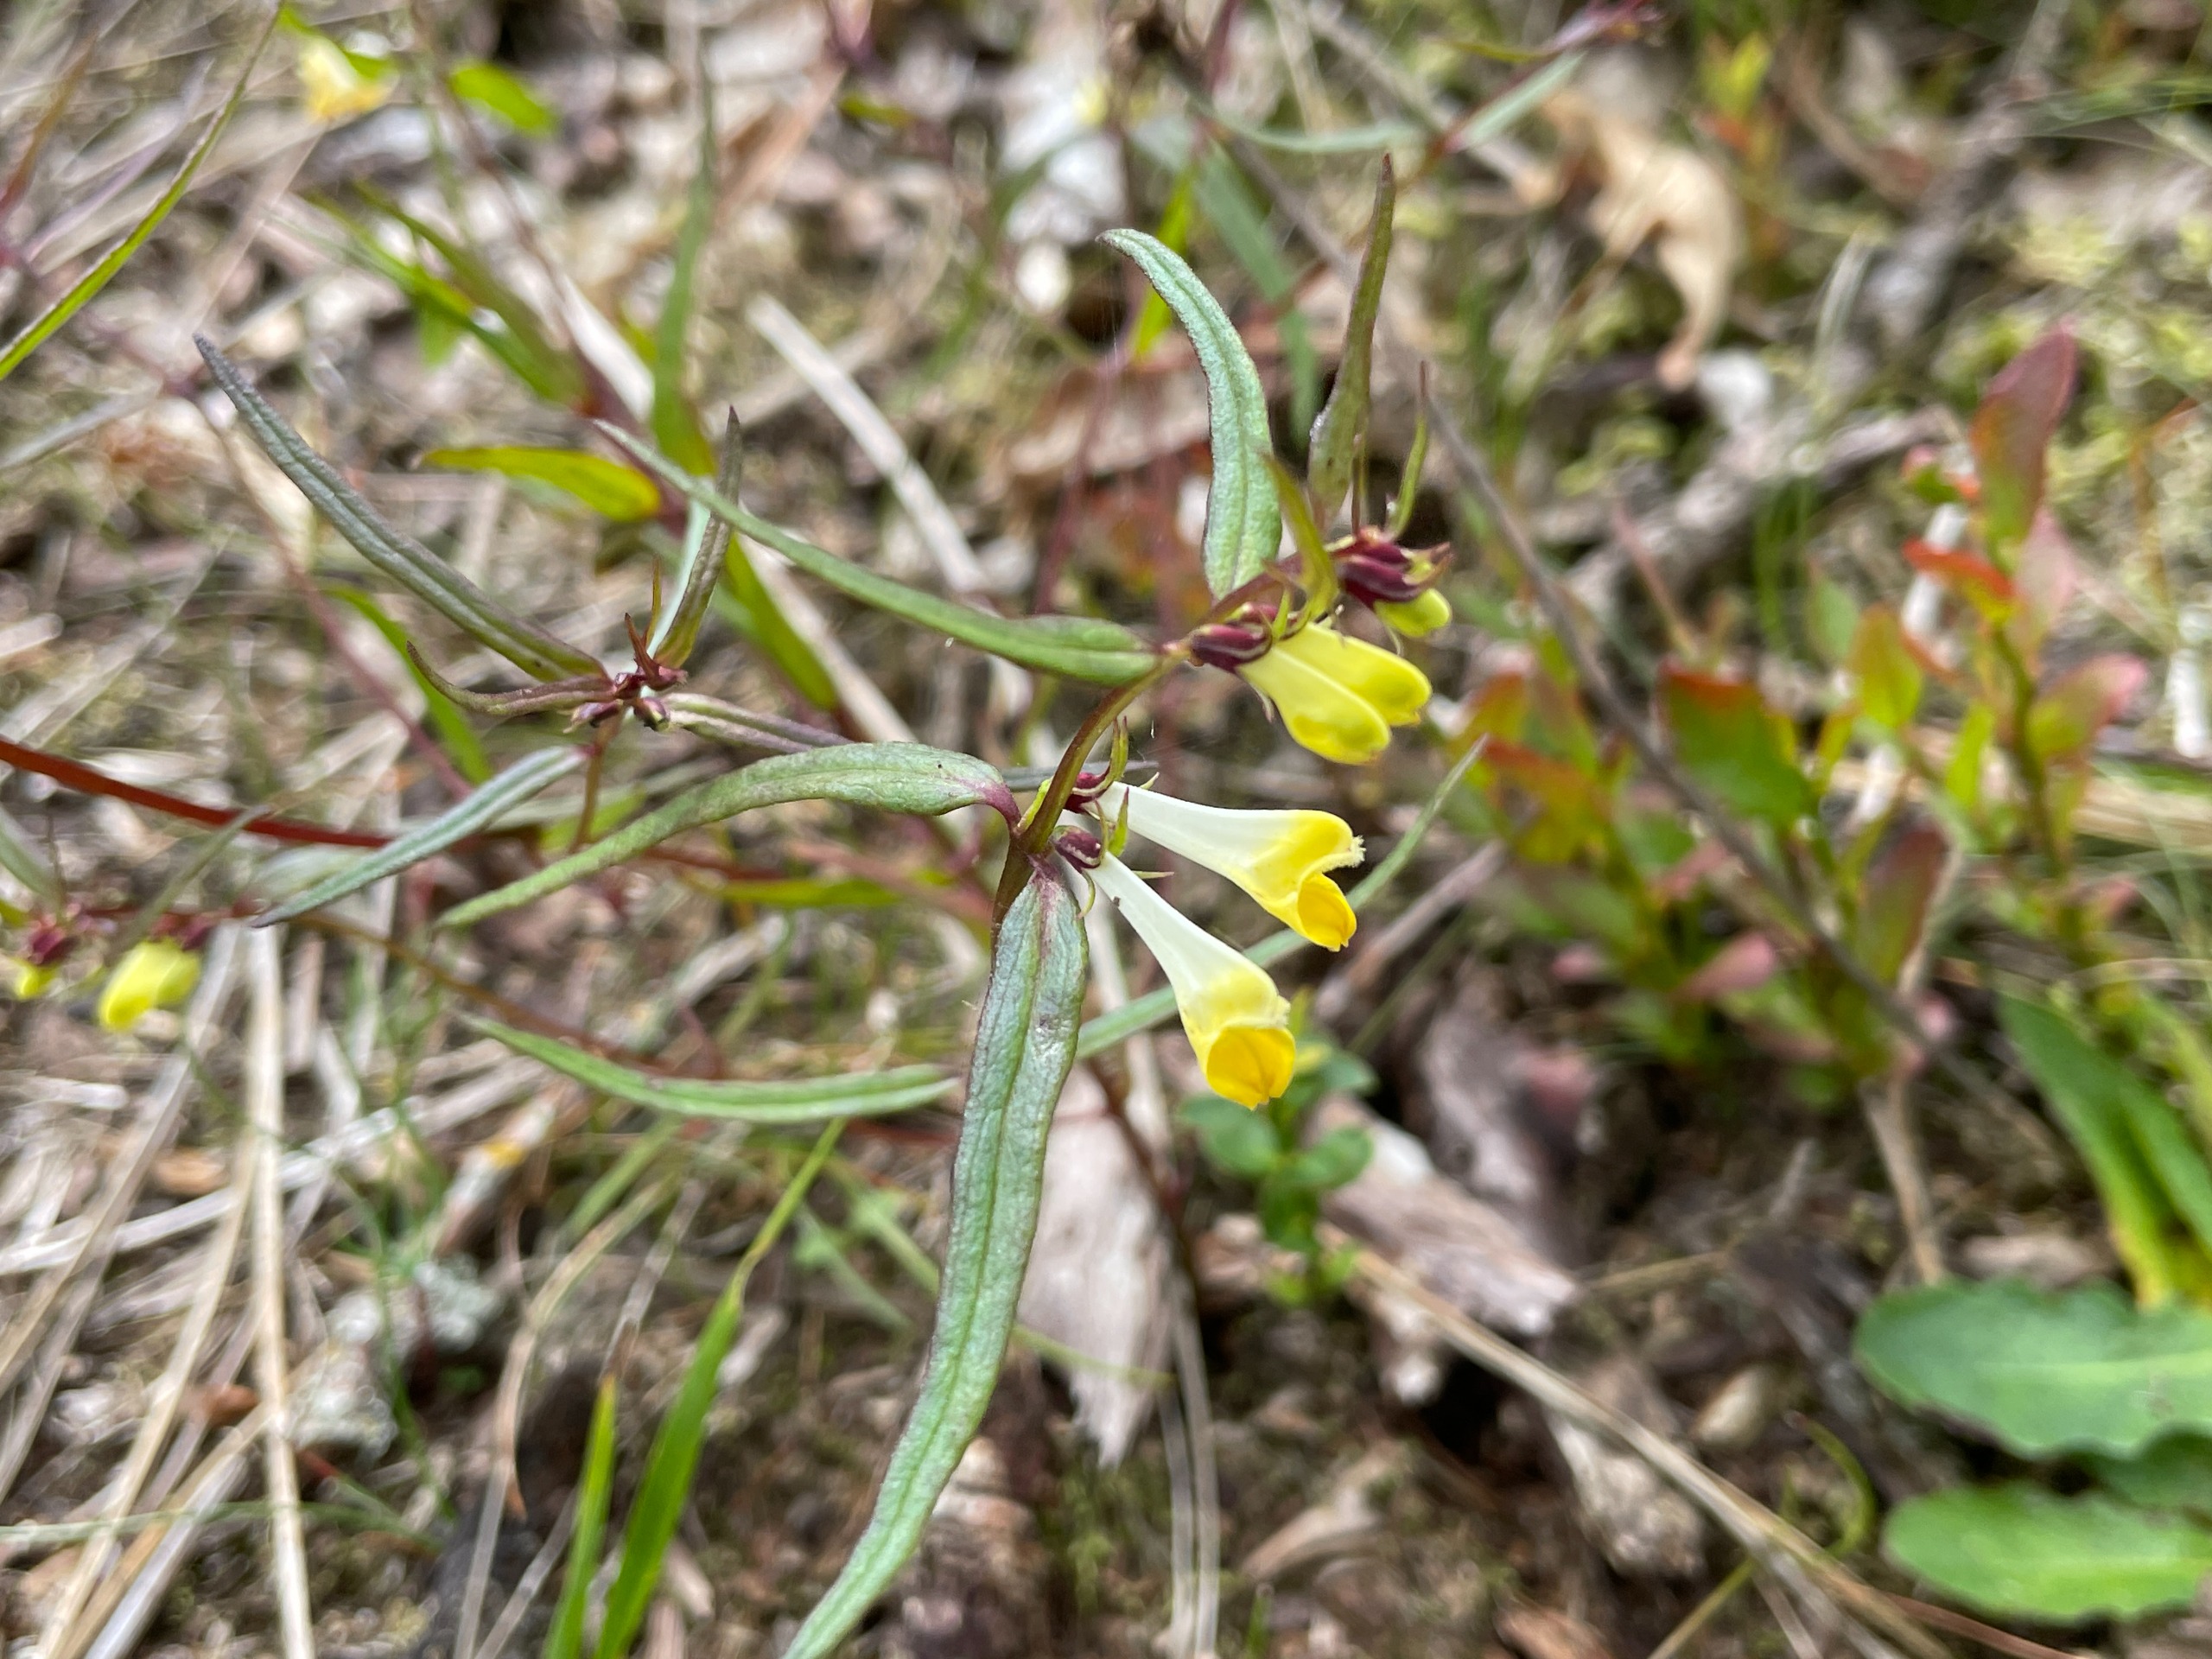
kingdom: Plantae
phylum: Tracheophyta
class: Magnoliopsida
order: Lamiales
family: Orobanchaceae
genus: Melampyrum
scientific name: Melampyrum pratense
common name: Almindelig kohvede
